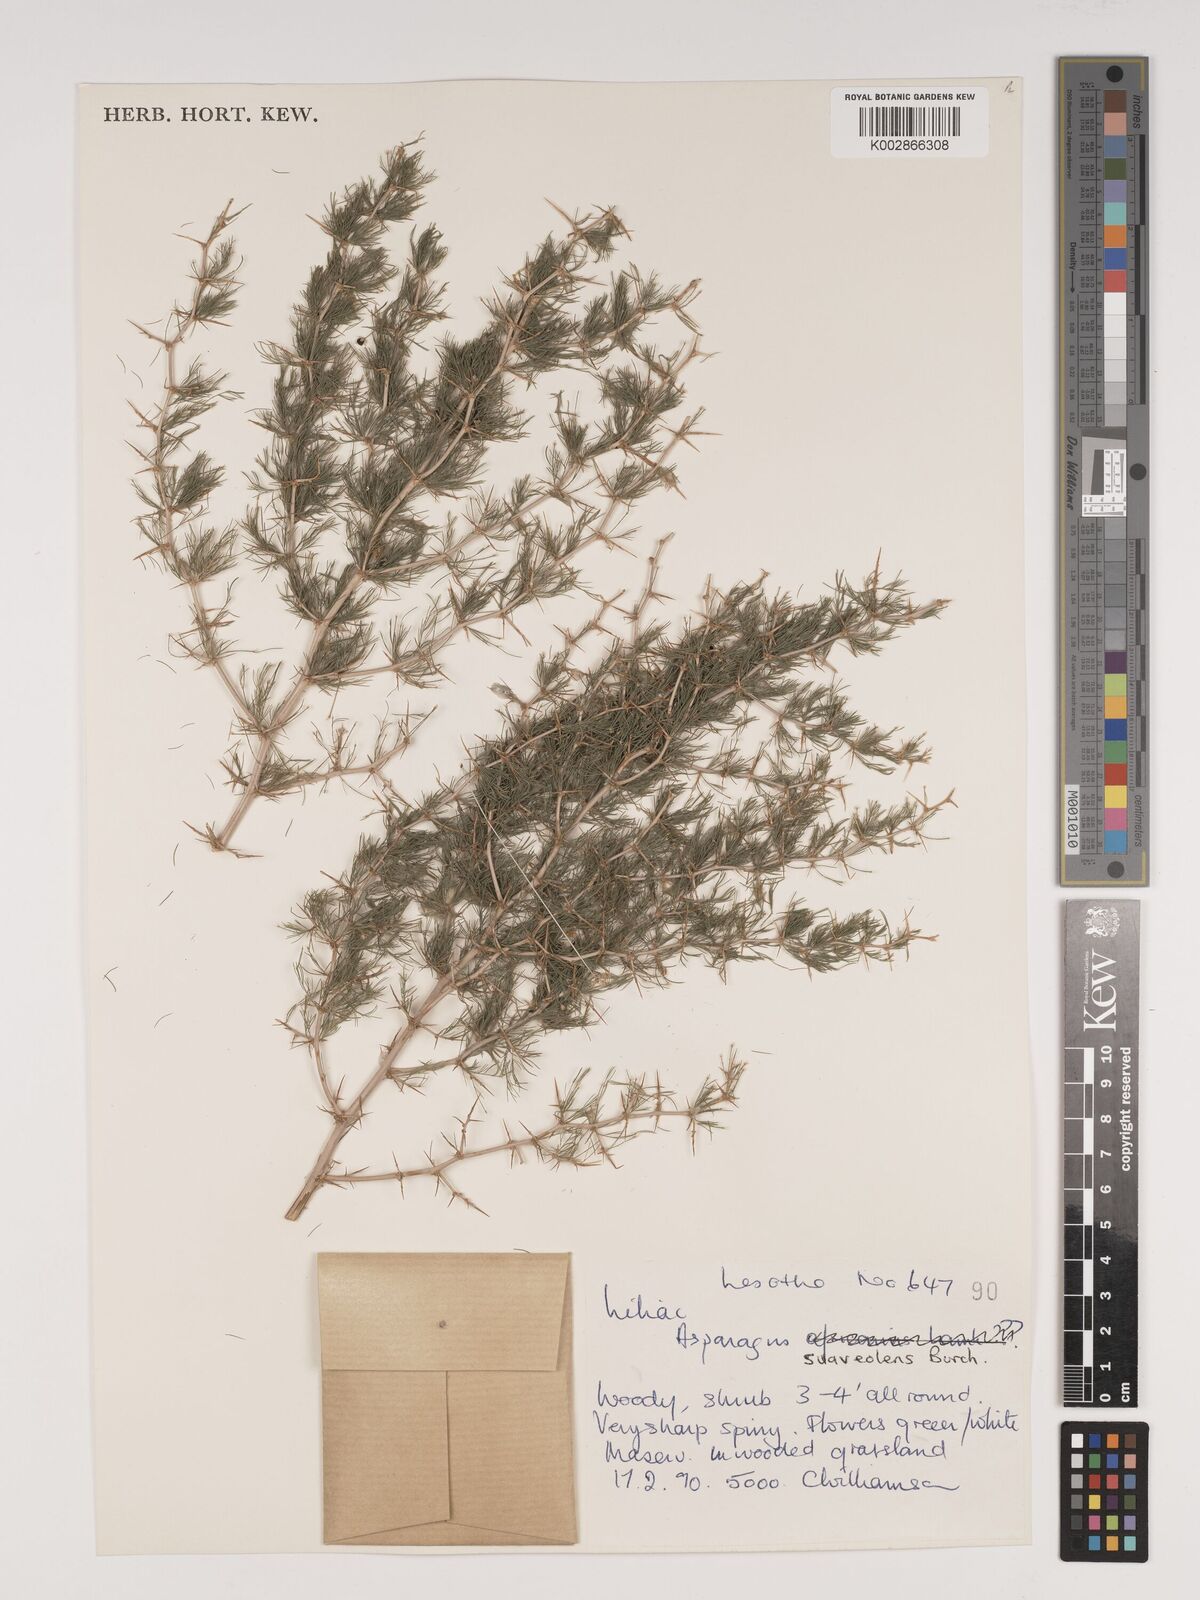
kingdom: Plantae
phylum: Tracheophyta
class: Liliopsida
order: Asparagales
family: Asparagaceae
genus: Asparagus
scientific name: Asparagus suaveolens
